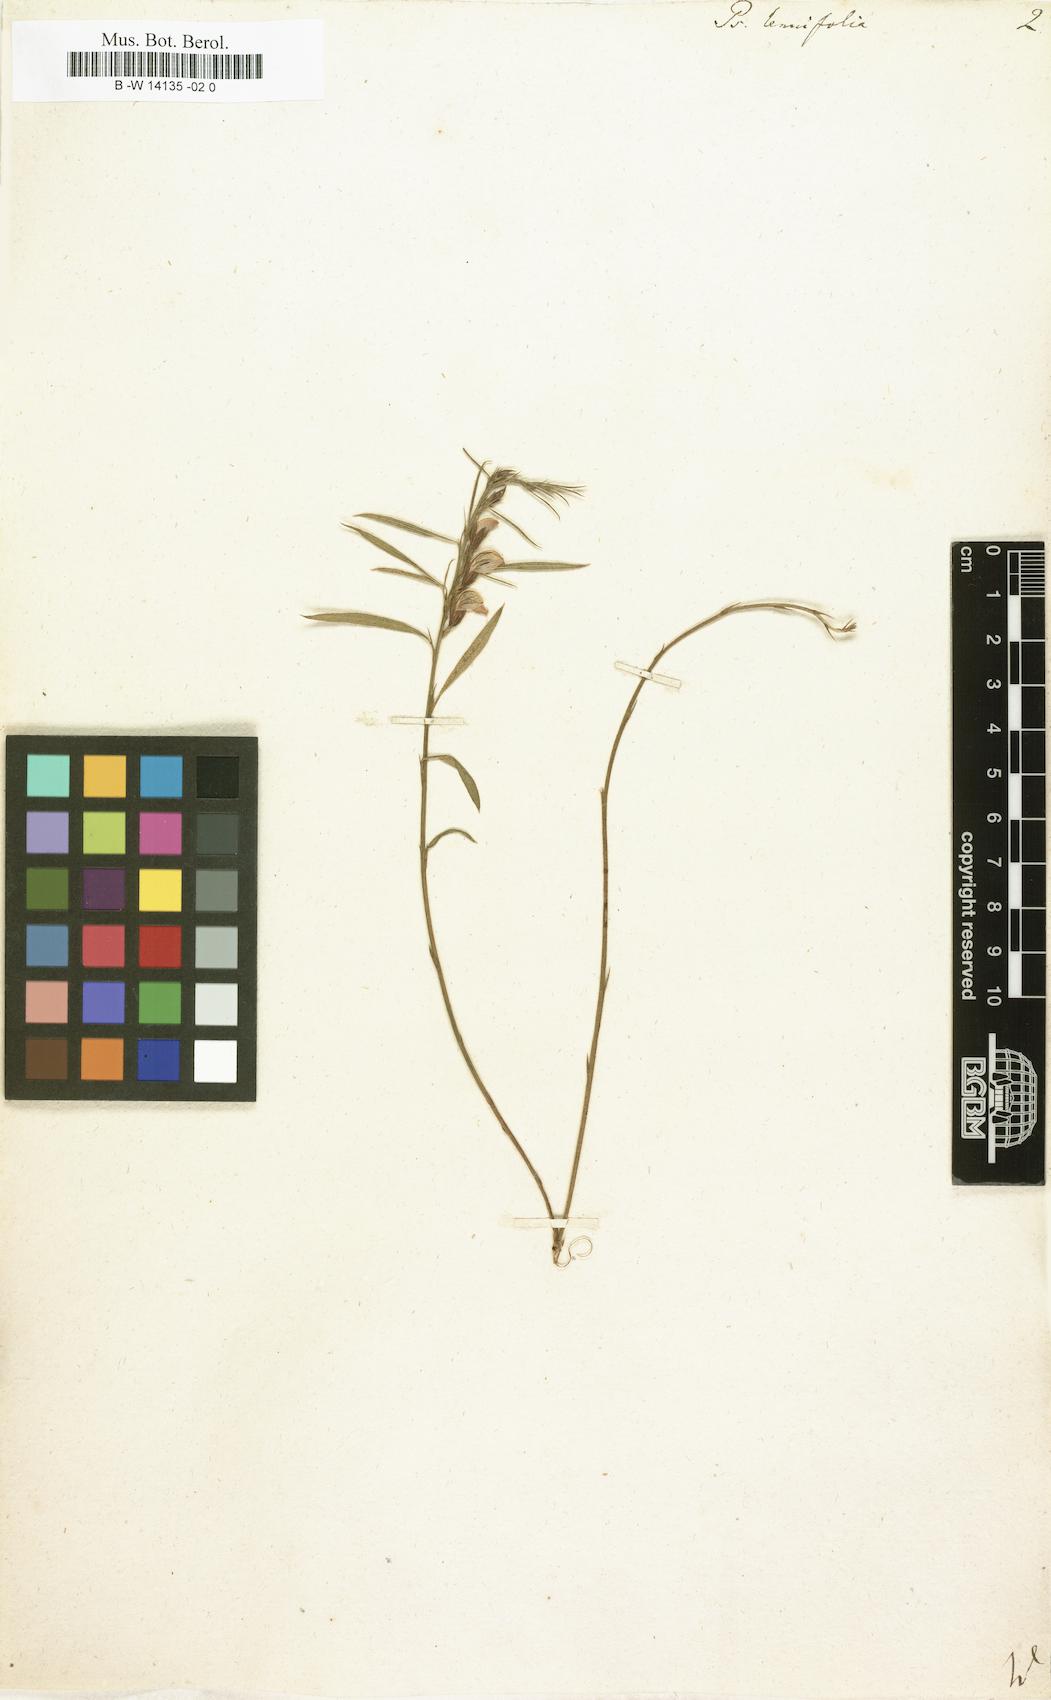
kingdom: Plantae
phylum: Tracheophyta
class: Magnoliopsida
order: Fabales
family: Fabaceae
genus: Psoralea
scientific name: Psoralea tenuifolia
